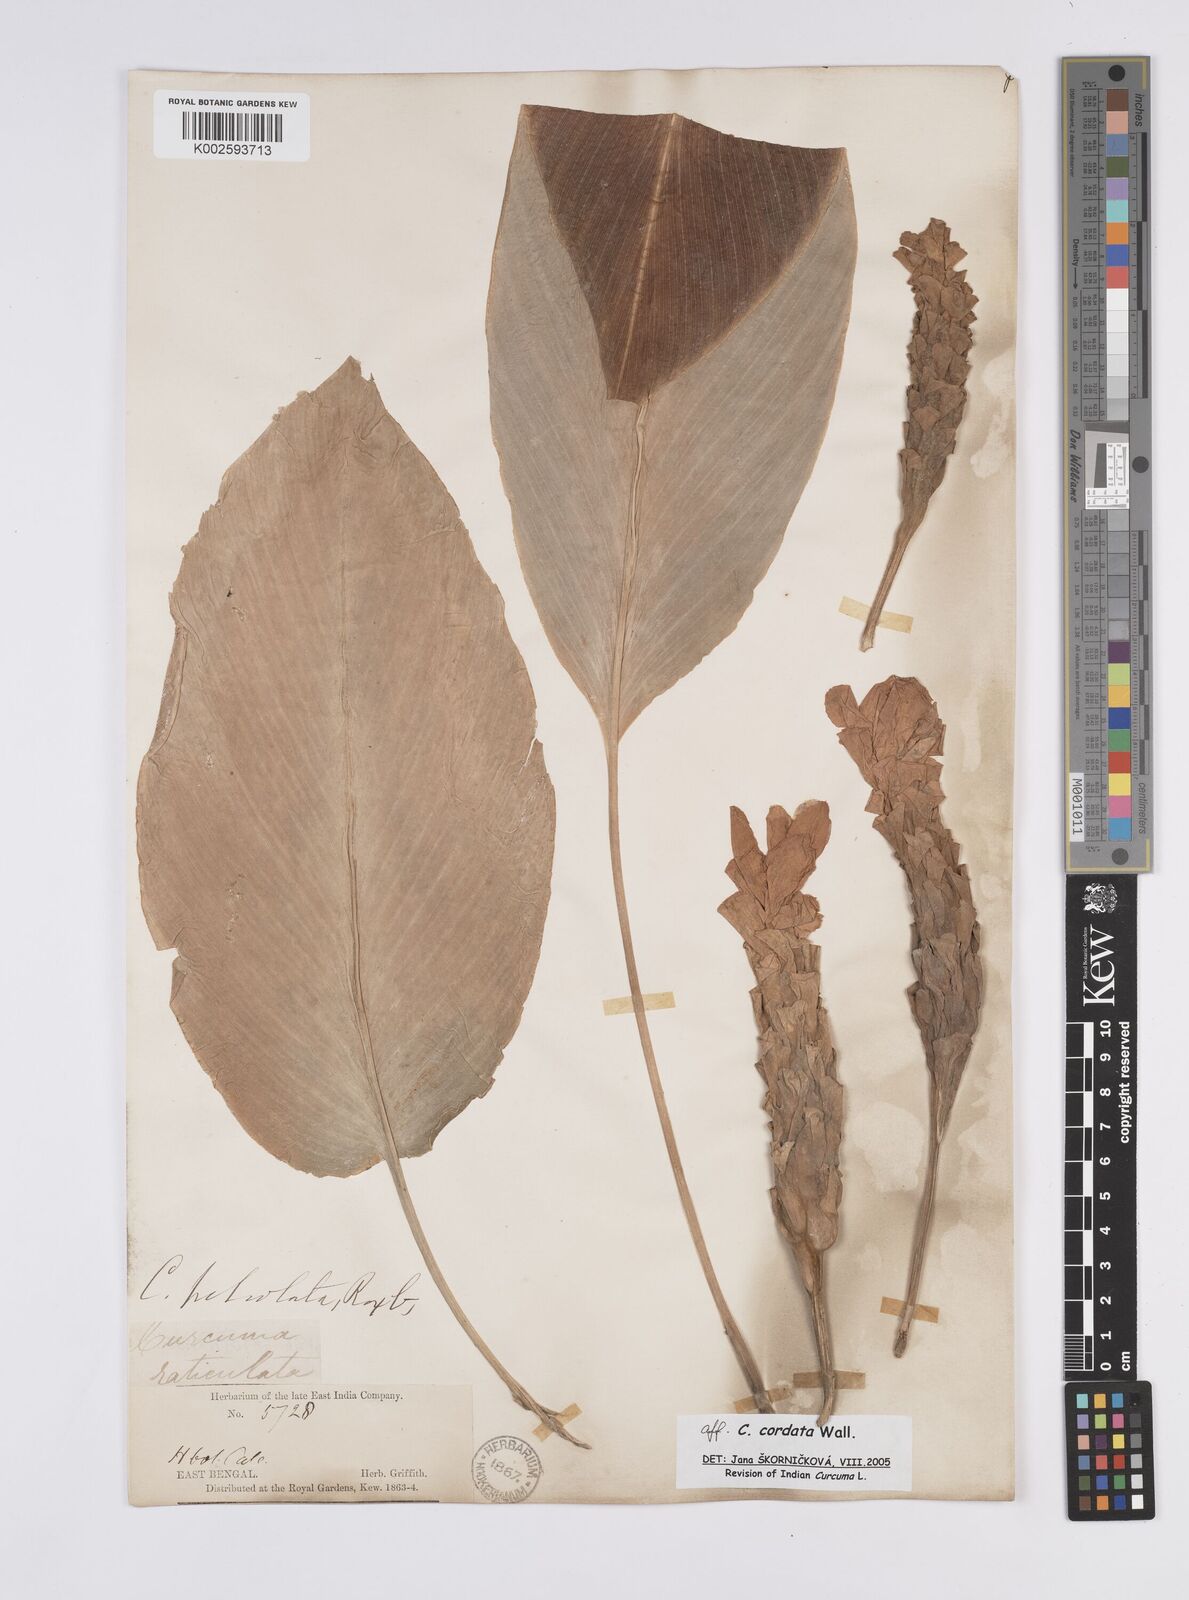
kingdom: Plantae
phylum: Tracheophyta
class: Liliopsida
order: Zingiberales
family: Zingiberaceae
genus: Curcuma
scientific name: Curcuma cordata
